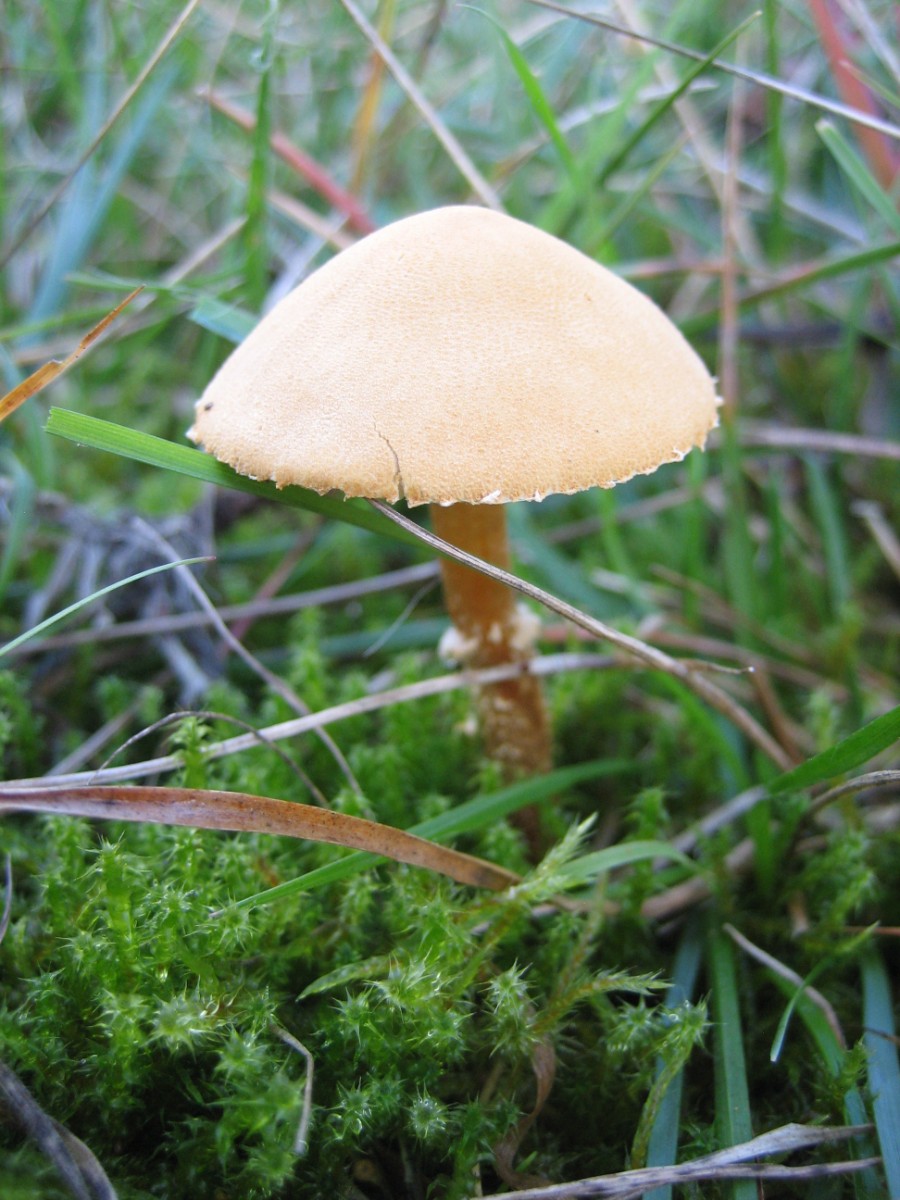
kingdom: Fungi
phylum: Basidiomycota
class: Agaricomycetes
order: Agaricales
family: Tricholomataceae
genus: Cystoderma
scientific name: Cystoderma amianthinum
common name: okkergul grynhat
